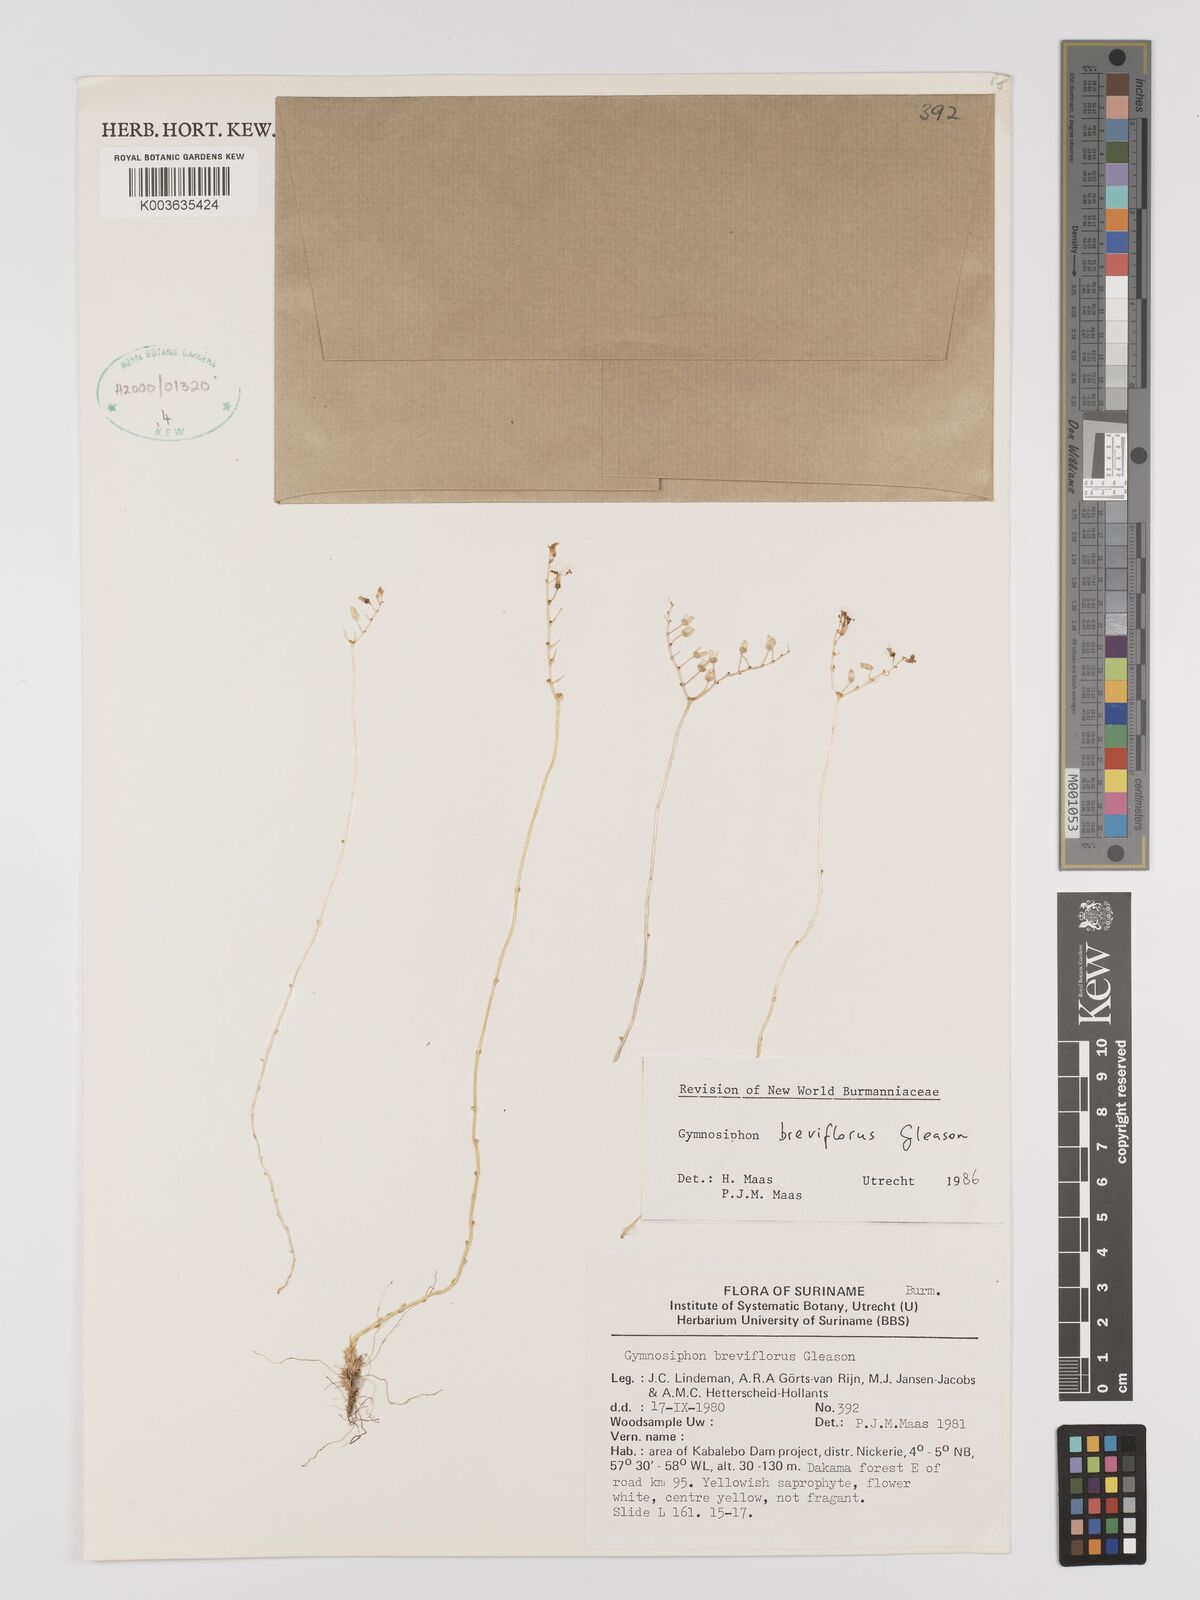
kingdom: Plantae
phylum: Tracheophyta
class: Liliopsida
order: Dioscoreales
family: Burmanniaceae
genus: Gymnosiphon
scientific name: Gymnosiphon breviflorus
